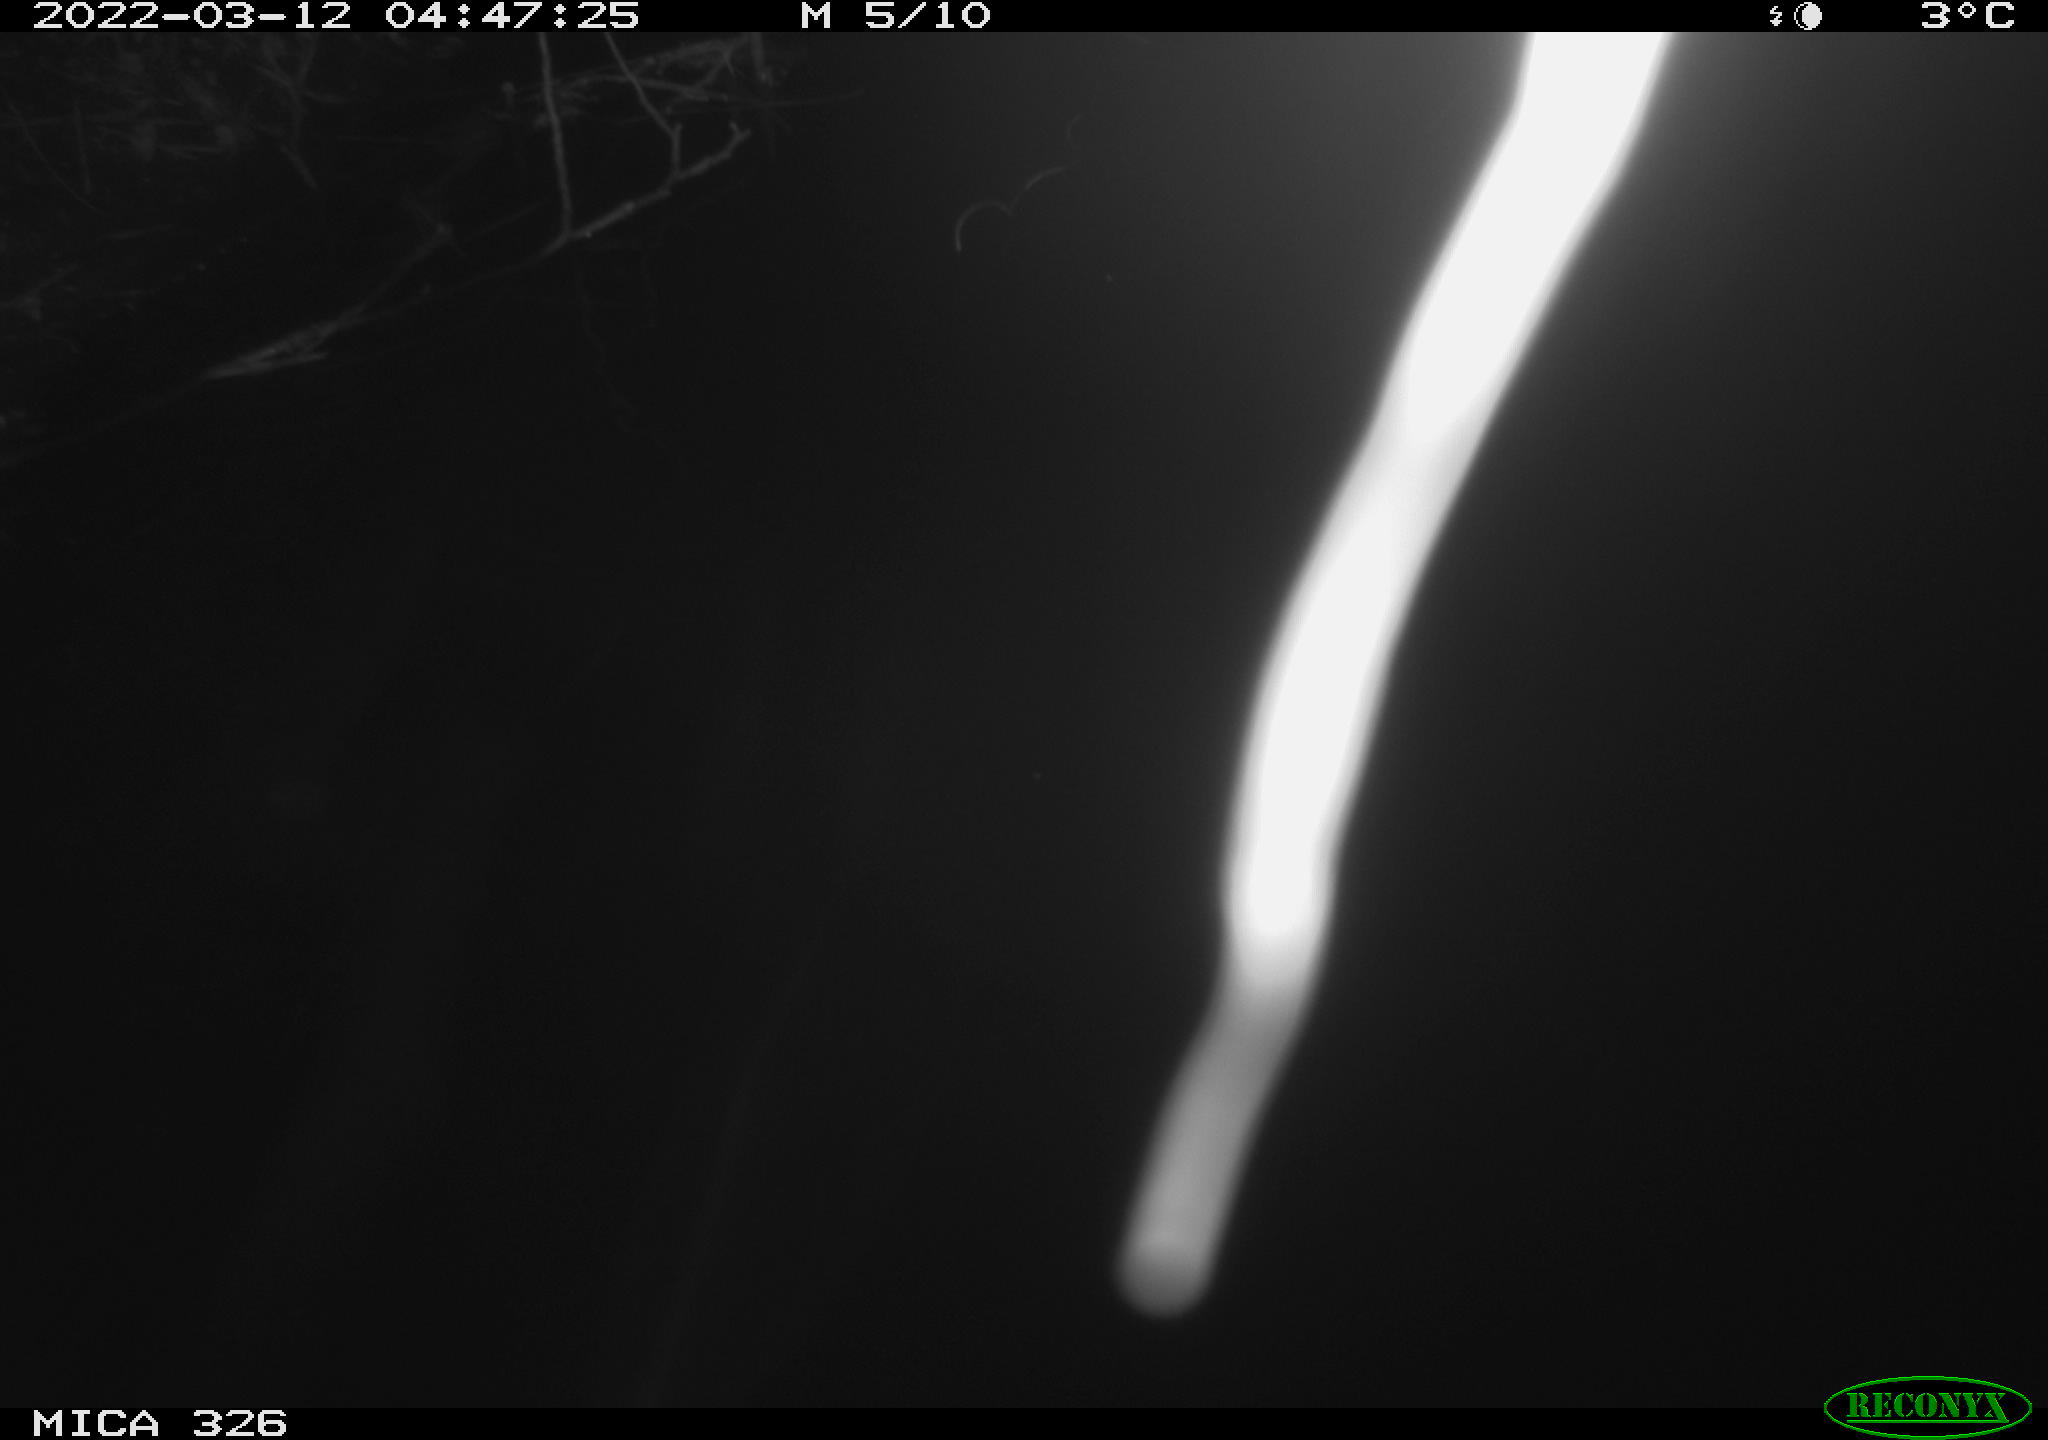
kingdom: Animalia
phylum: Chordata
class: Mammalia
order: Rodentia
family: Cricetidae
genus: Ondatra
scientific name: Ondatra zibethicus
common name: Muskrat
